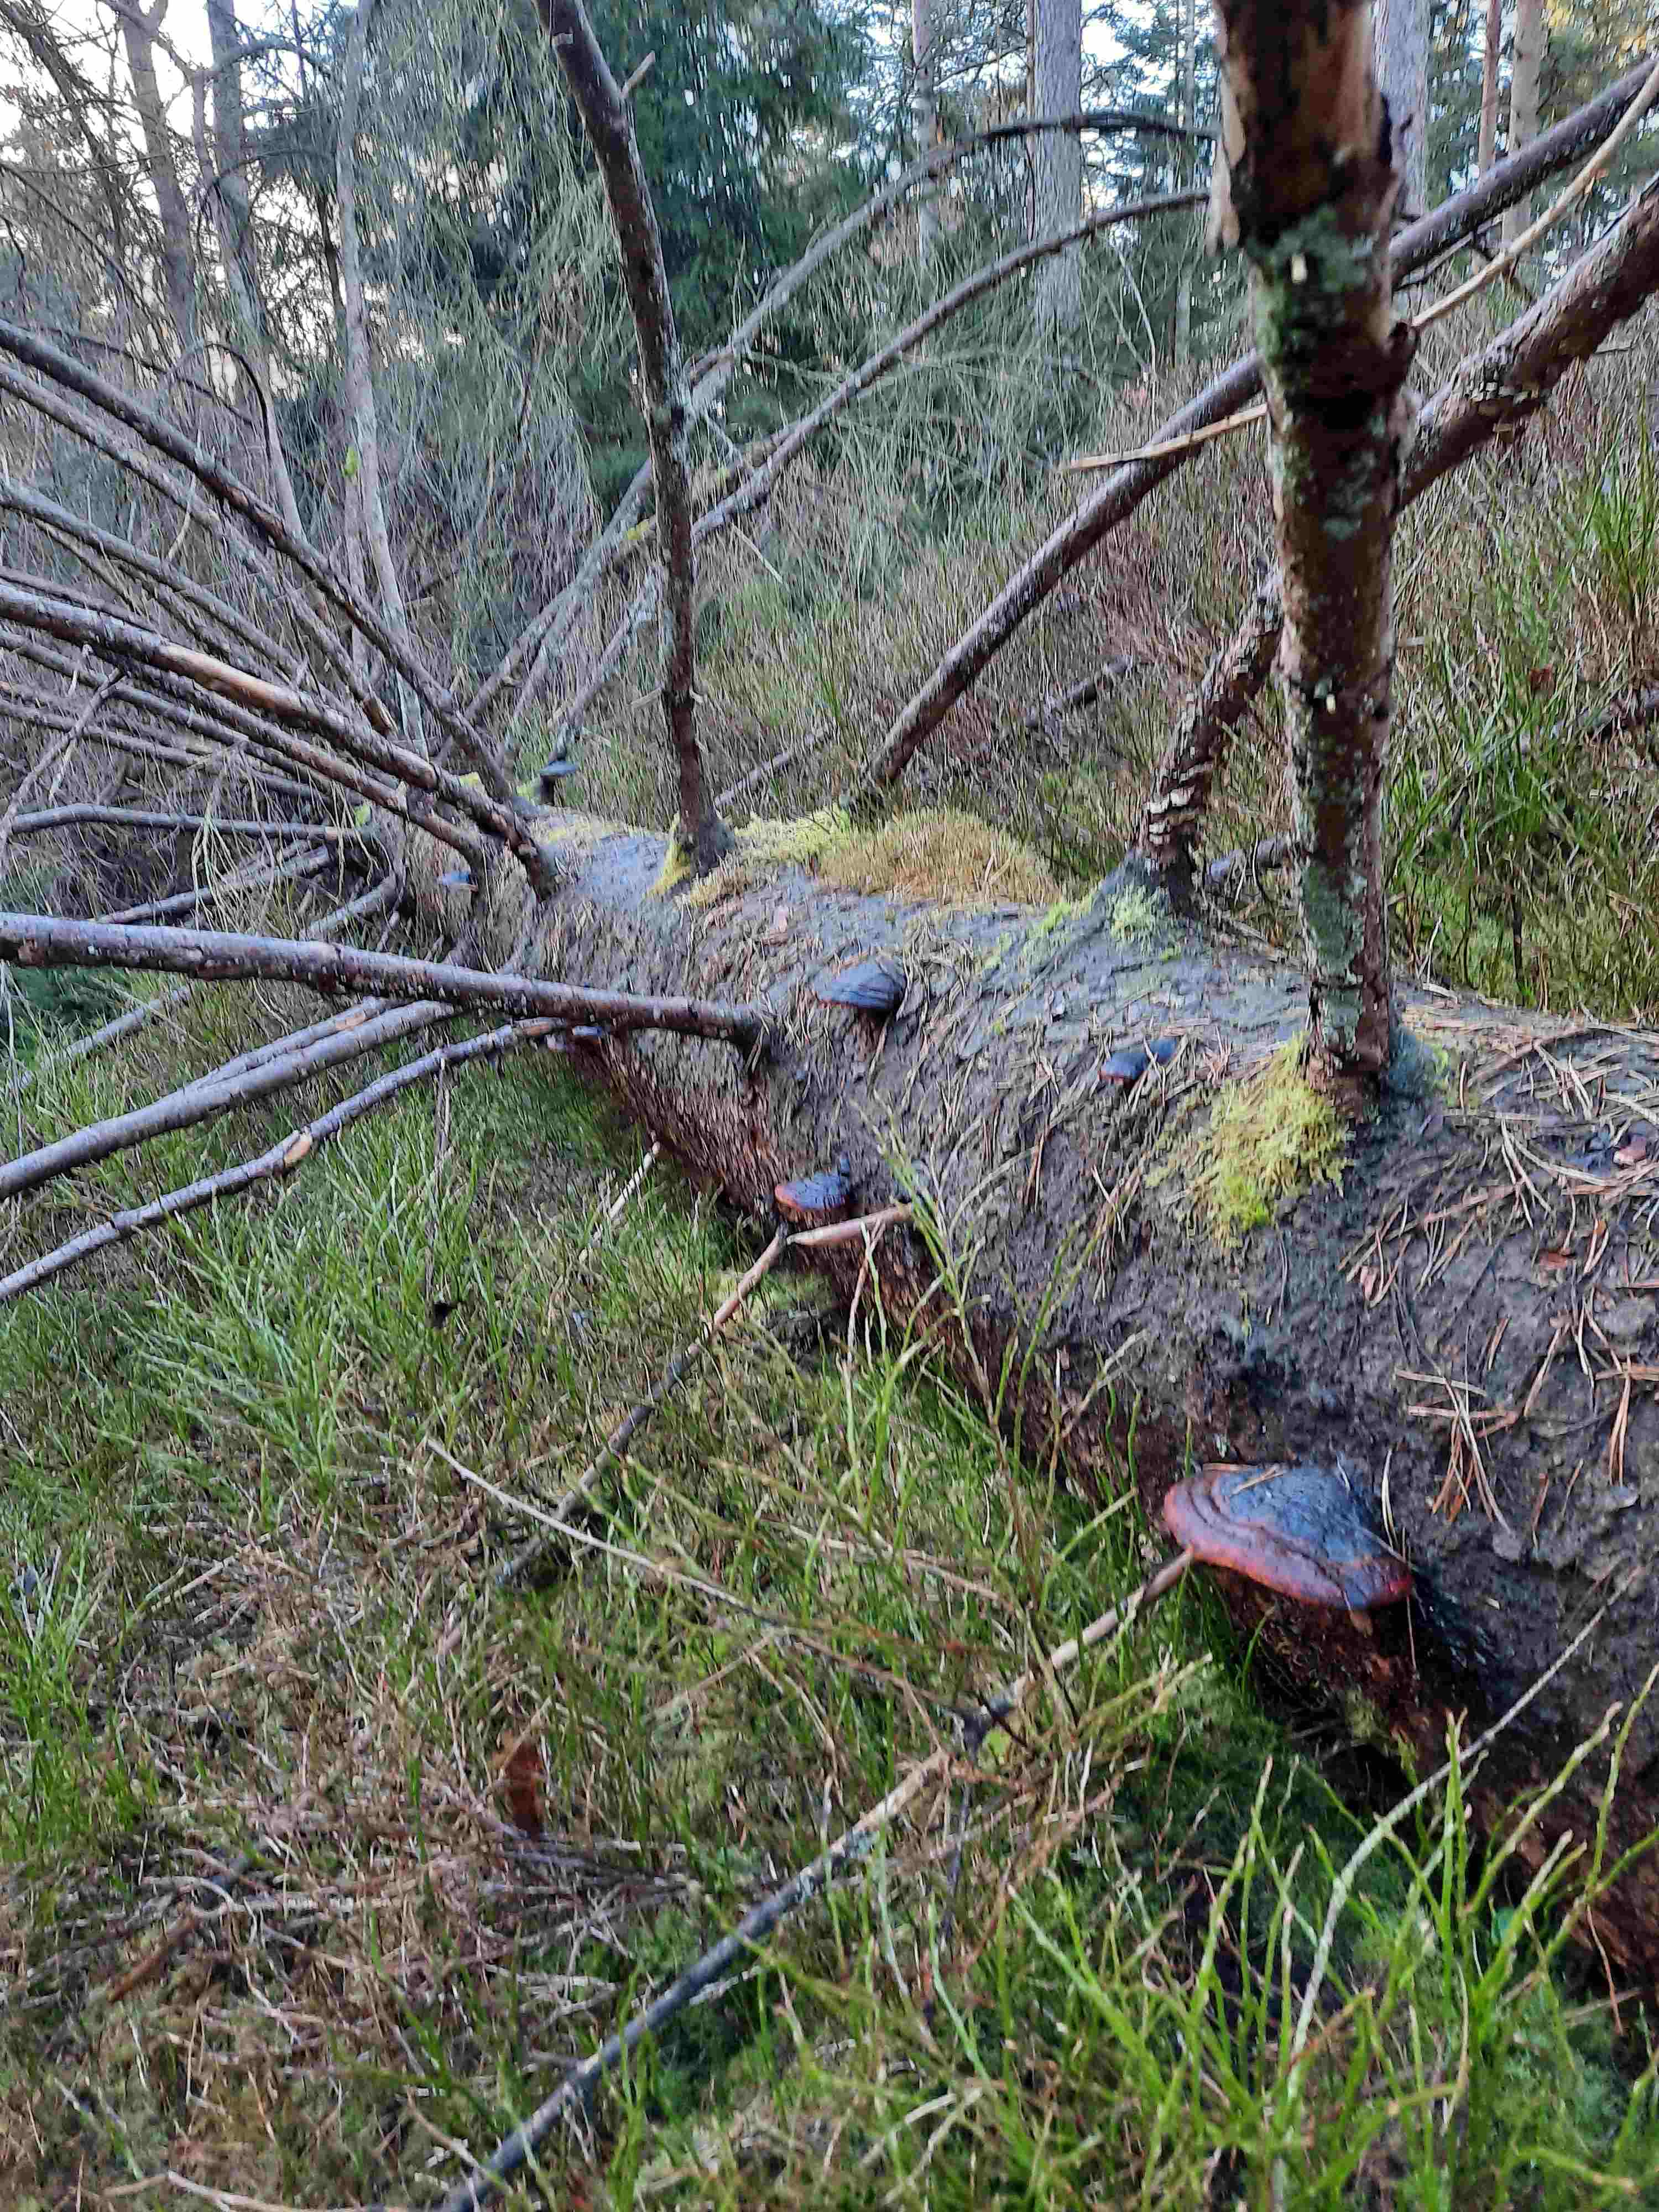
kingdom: Fungi
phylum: Basidiomycota
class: Agaricomycetes
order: Polyporales
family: Fomitopsidaceae
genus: Fomitopsis
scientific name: Fomitopsis pinicola
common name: randbæltet hovporesvamp
